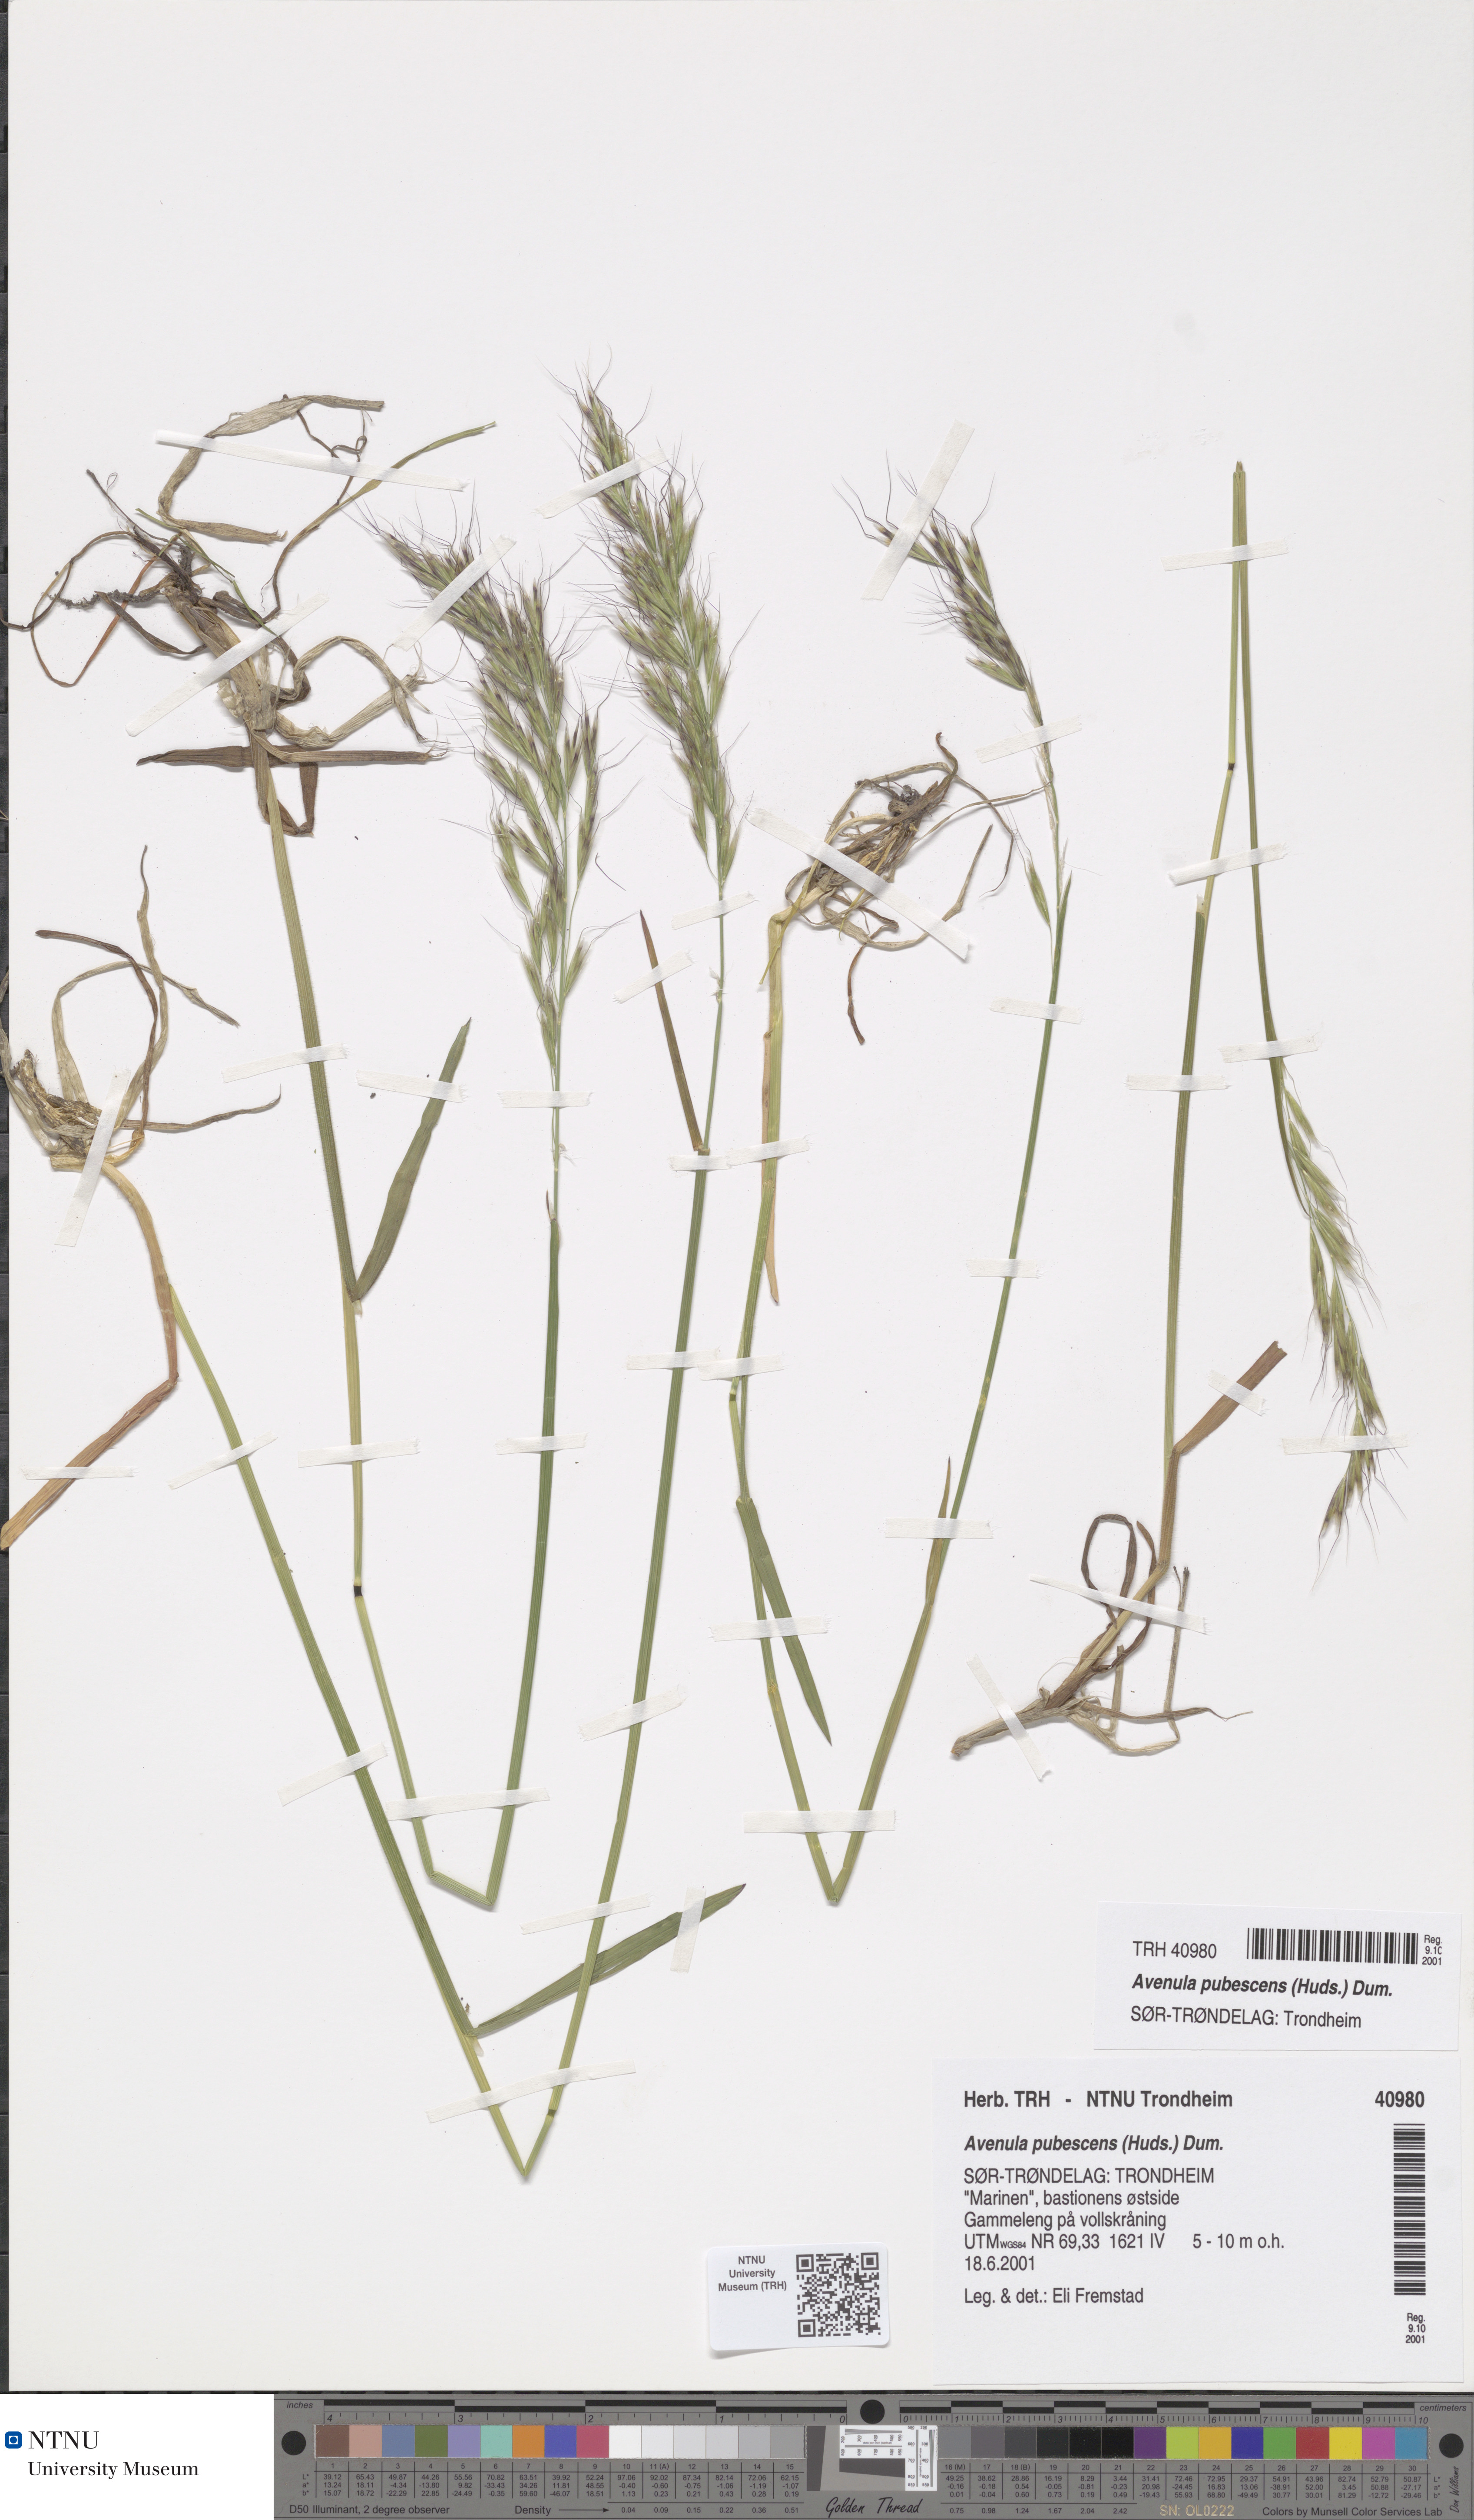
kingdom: Plantae
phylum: Tracheophyta
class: Liliopsida
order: Poales
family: Poaceae
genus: Avenula
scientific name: Avenula pubescens
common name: Downy alpine oatgrass
